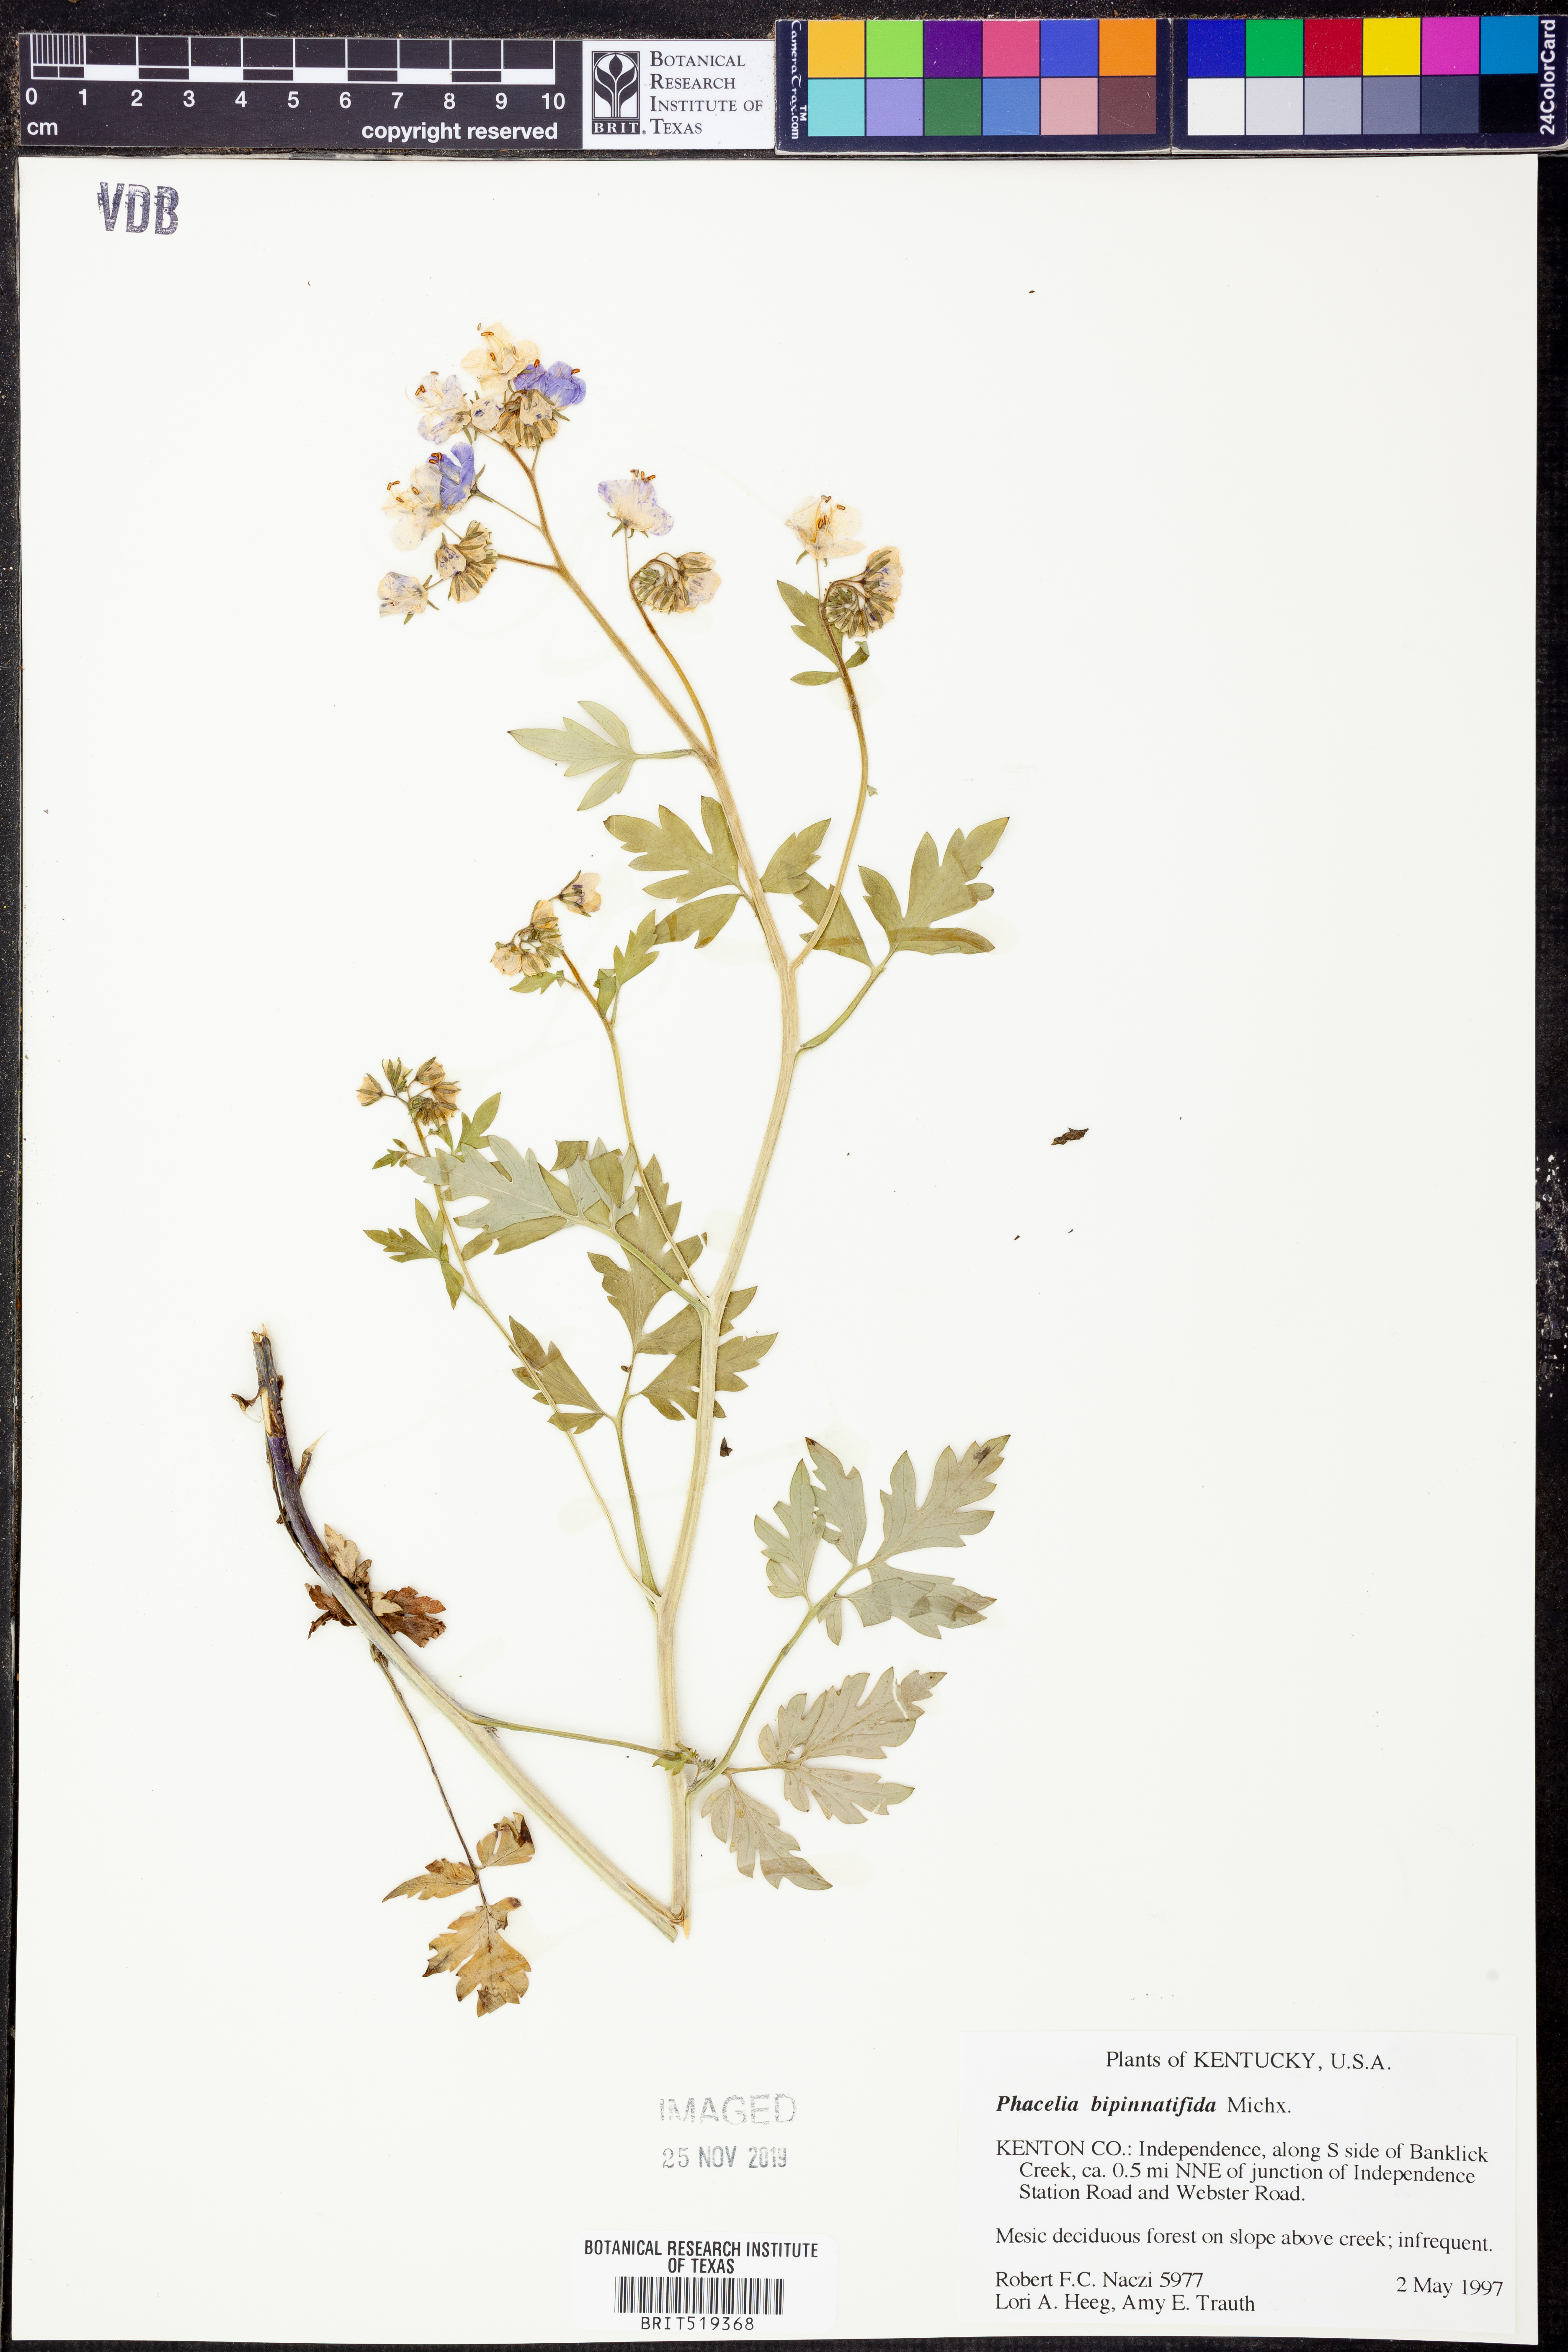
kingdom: Plantae
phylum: Tracheophyta
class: Magnoliopsida
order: Boraginales
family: Hydrophyllaceae
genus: Phacelia
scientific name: Phacelia bipinnatifida
